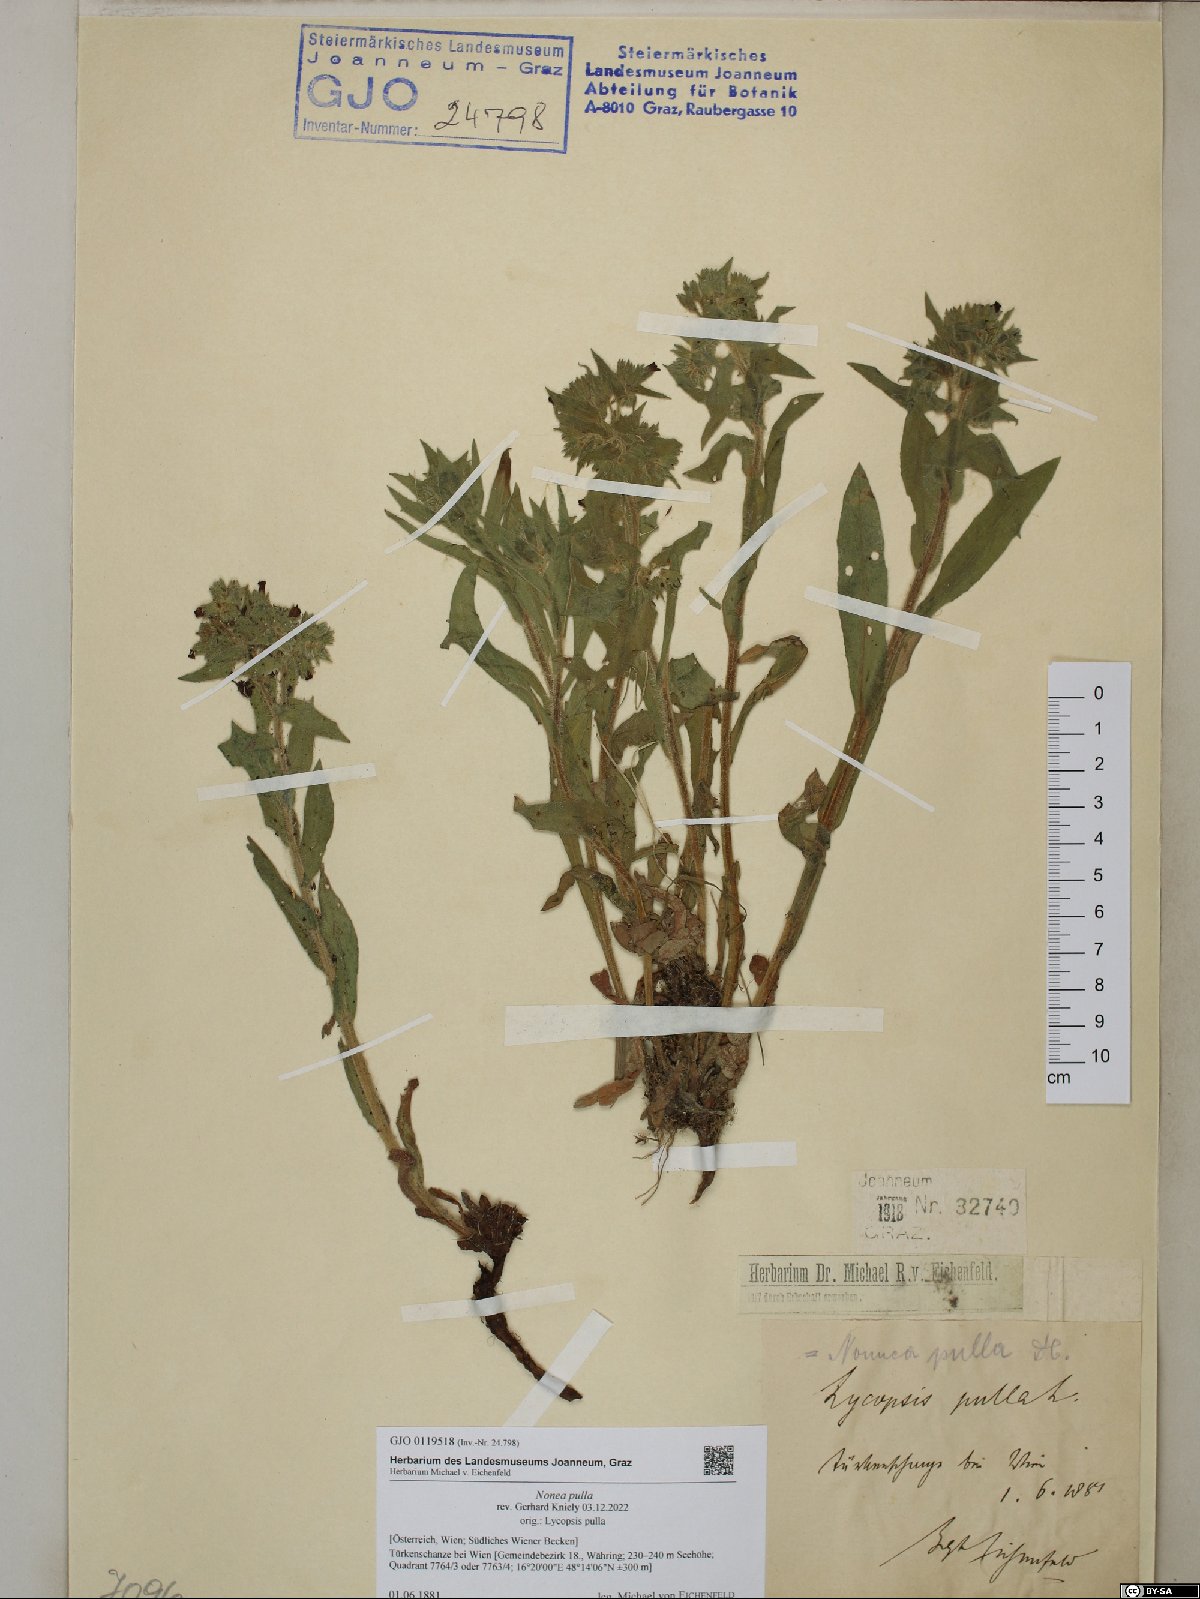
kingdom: Plantae
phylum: Tracheophyta
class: Magnoliopsida
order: Boraginales
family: Boraginaceae
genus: Nonea
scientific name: Nonea pulla
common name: Brown nonea
